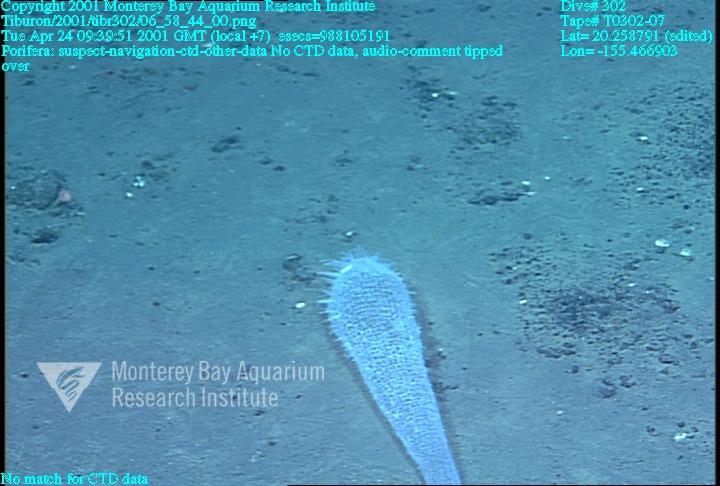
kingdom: Animalia
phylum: Porifera
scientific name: Porifera
